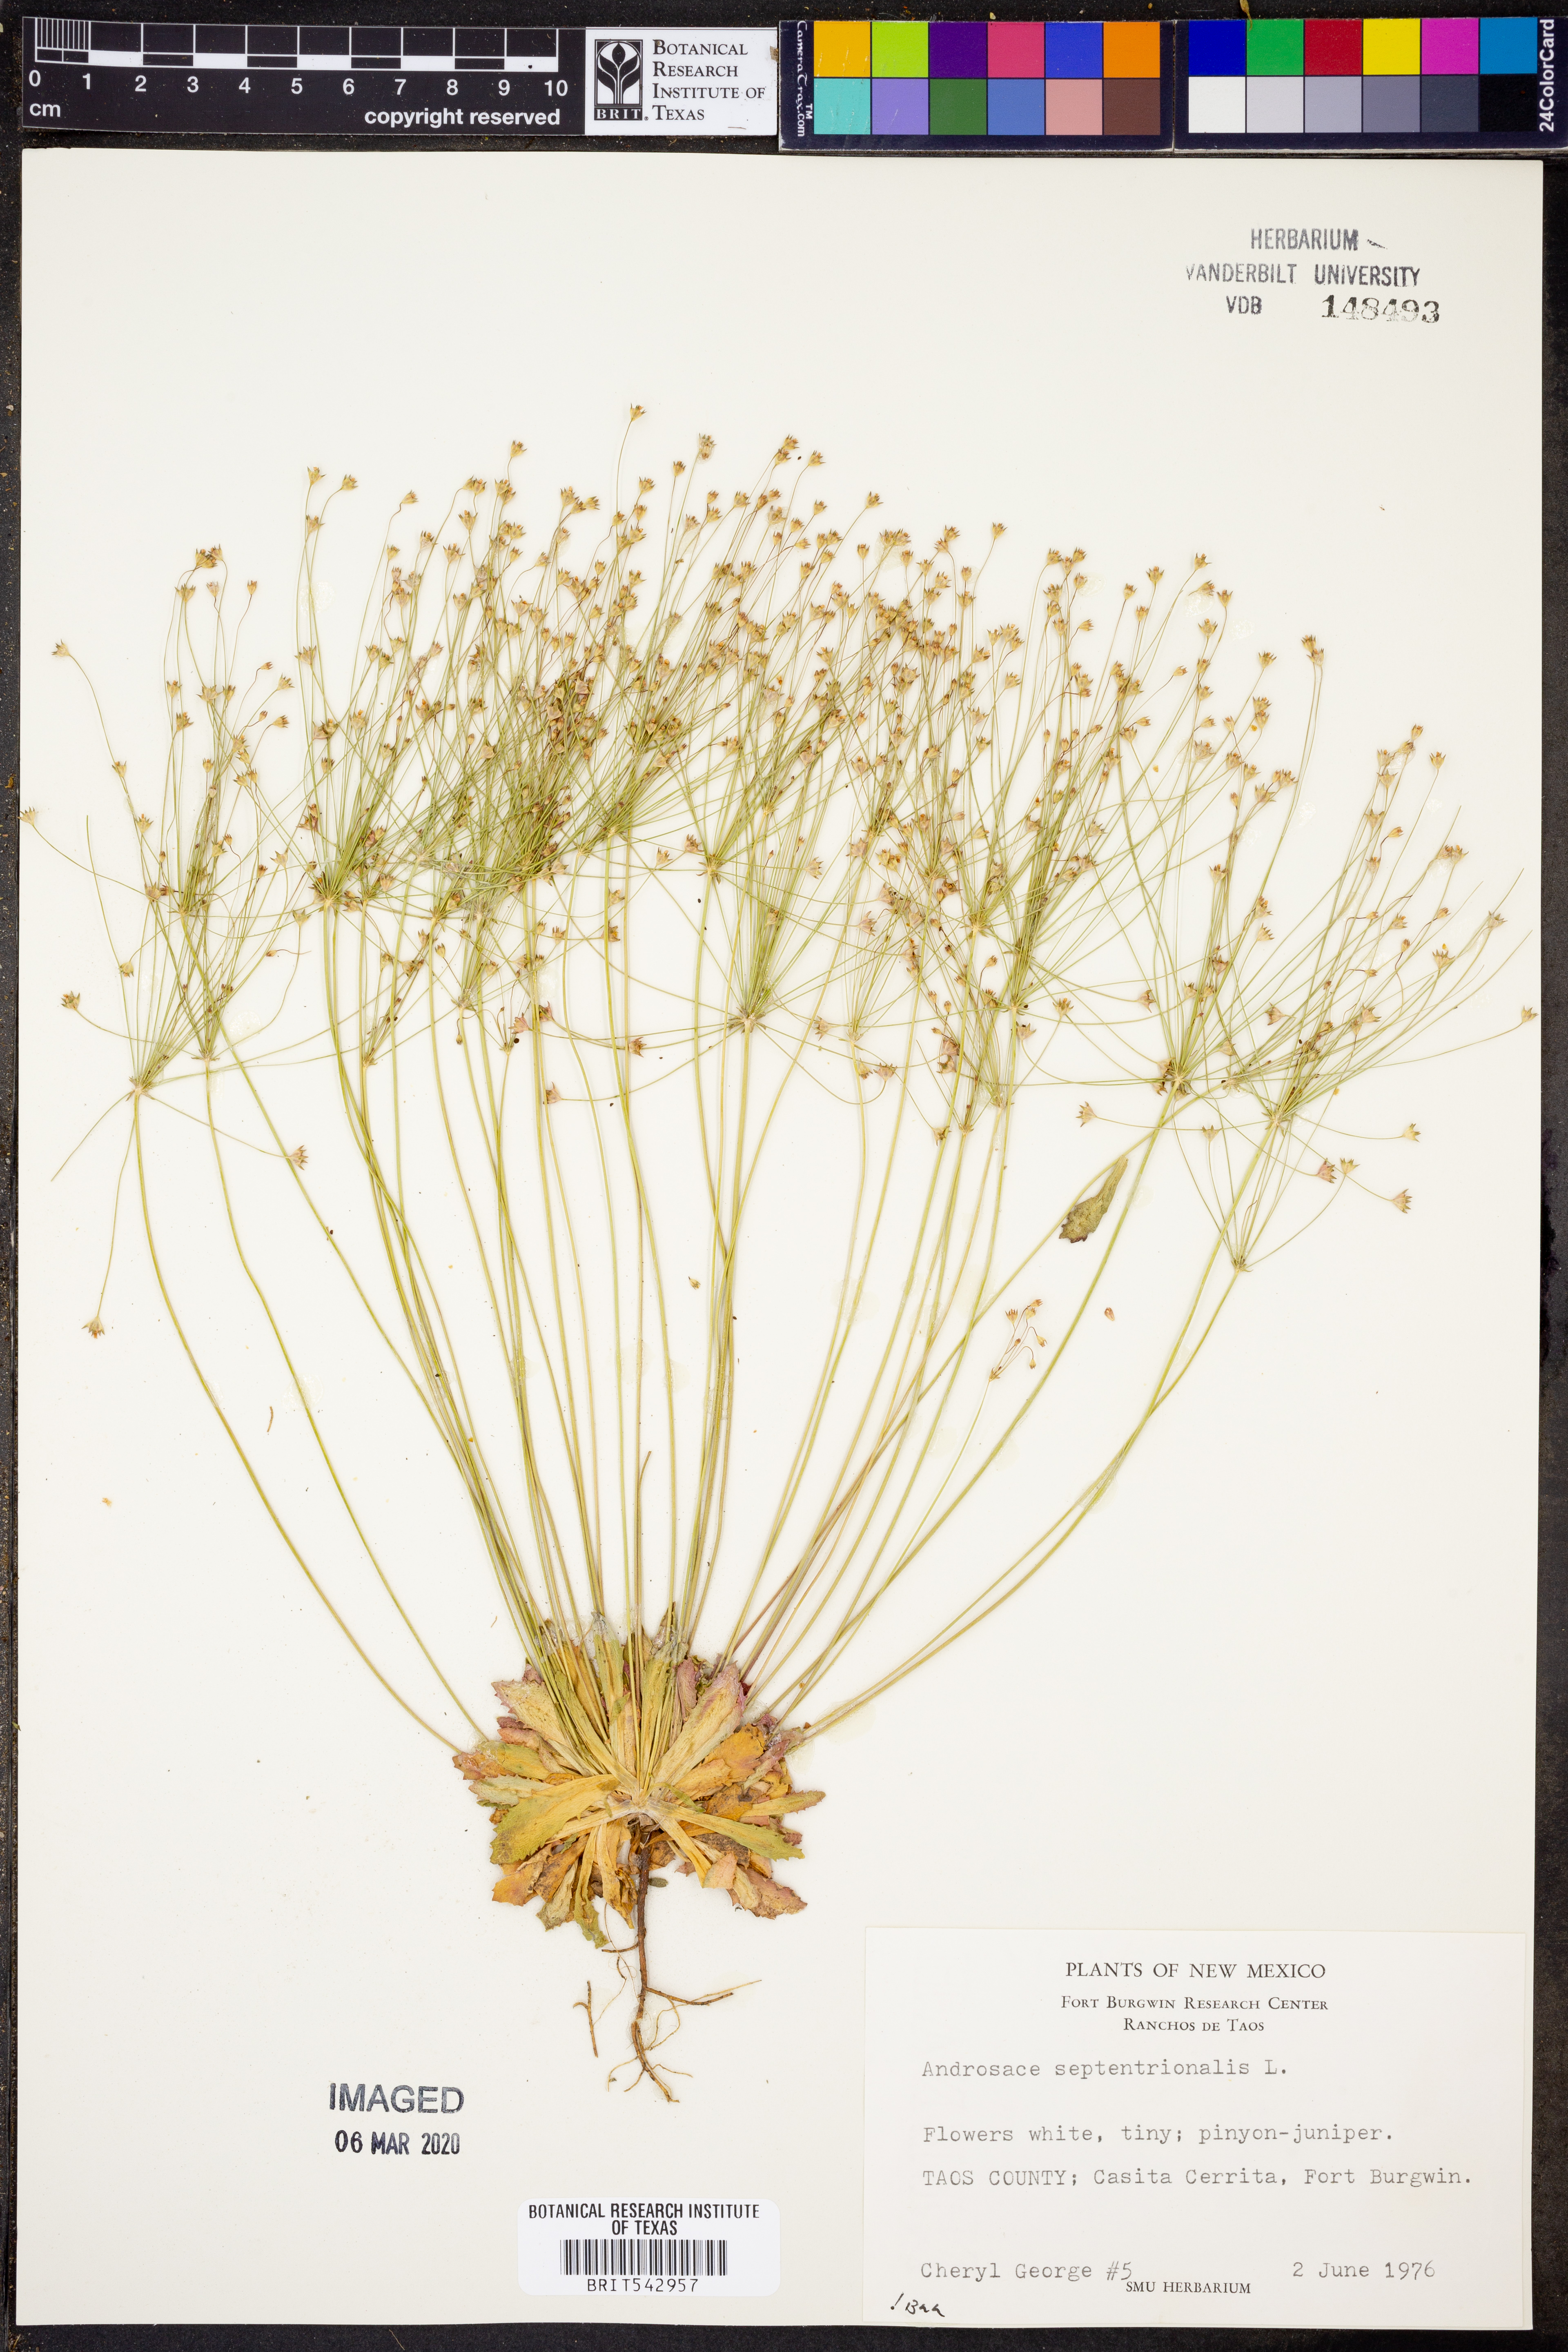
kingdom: Plantae
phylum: Tracheophyta
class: Magnoliopsida
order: Ericales
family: Primulaceae
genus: Androsace
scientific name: Androsace septentrionalis
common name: Hairy northern fairy-candelabra
